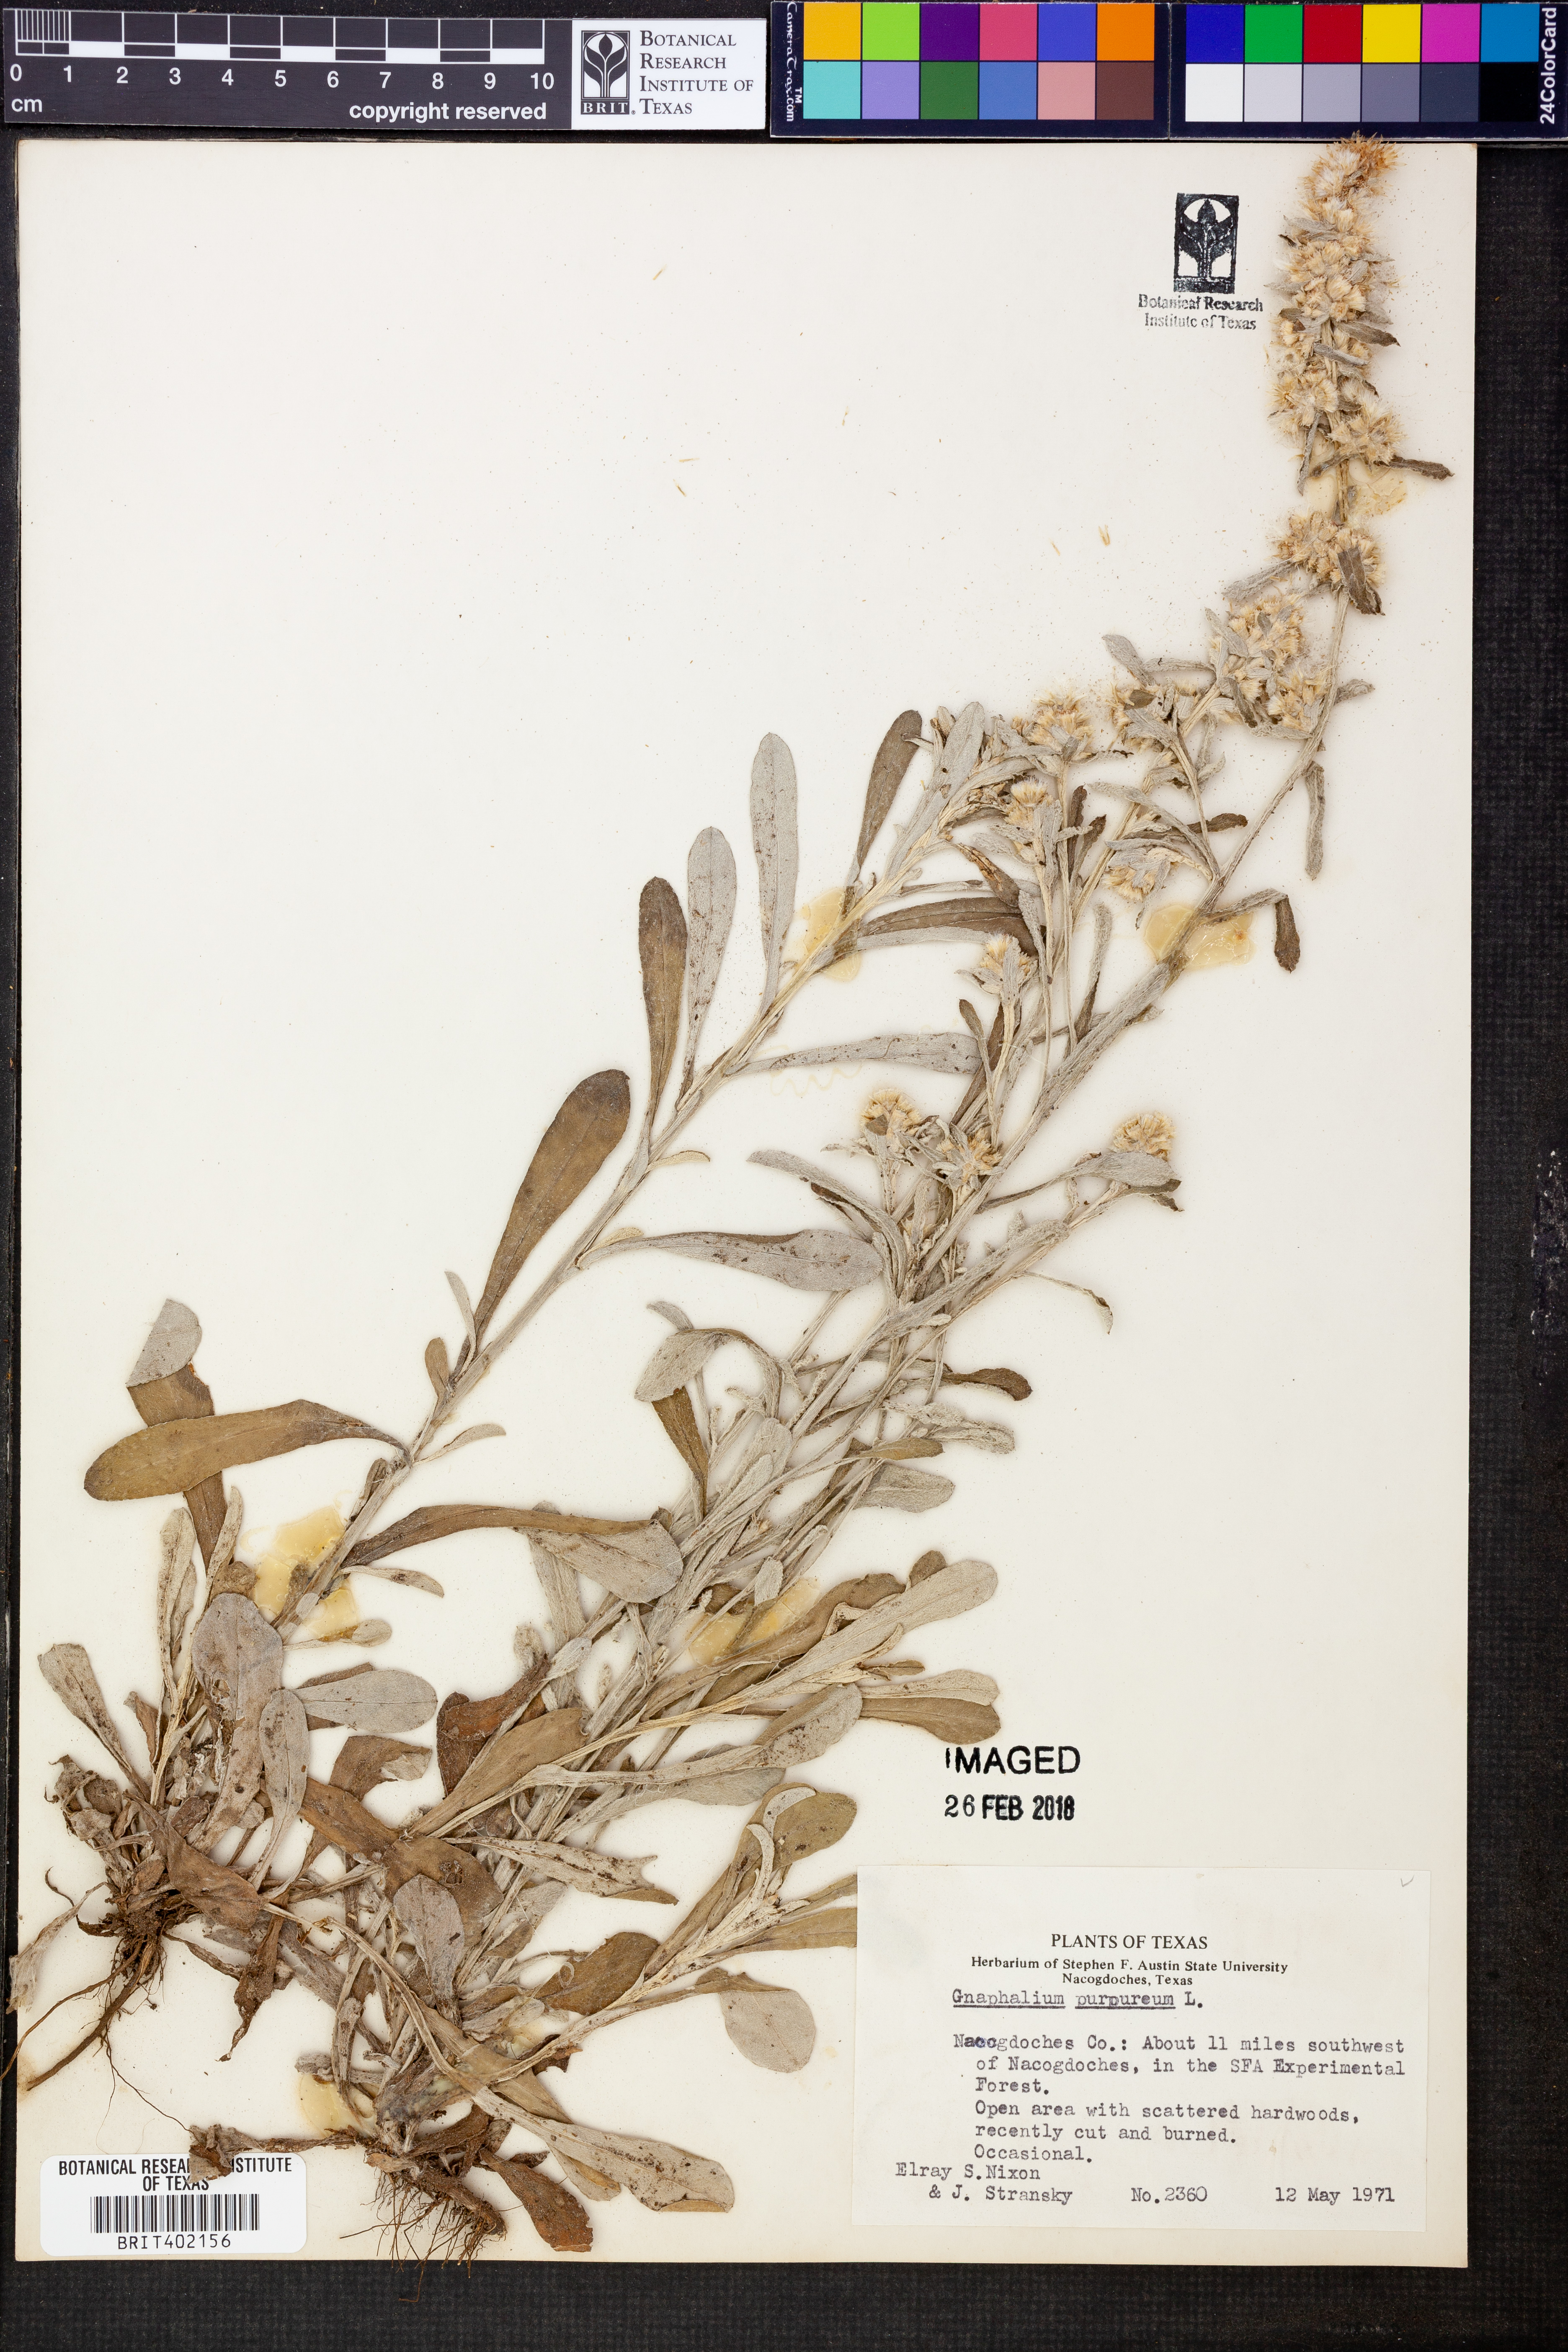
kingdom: Plantae
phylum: Tracheophyta
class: Magnoliopsida
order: Asterales
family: Asteraceae
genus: Gamochaeta
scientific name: Gamochaeta purpurea
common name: Purple cudweed
